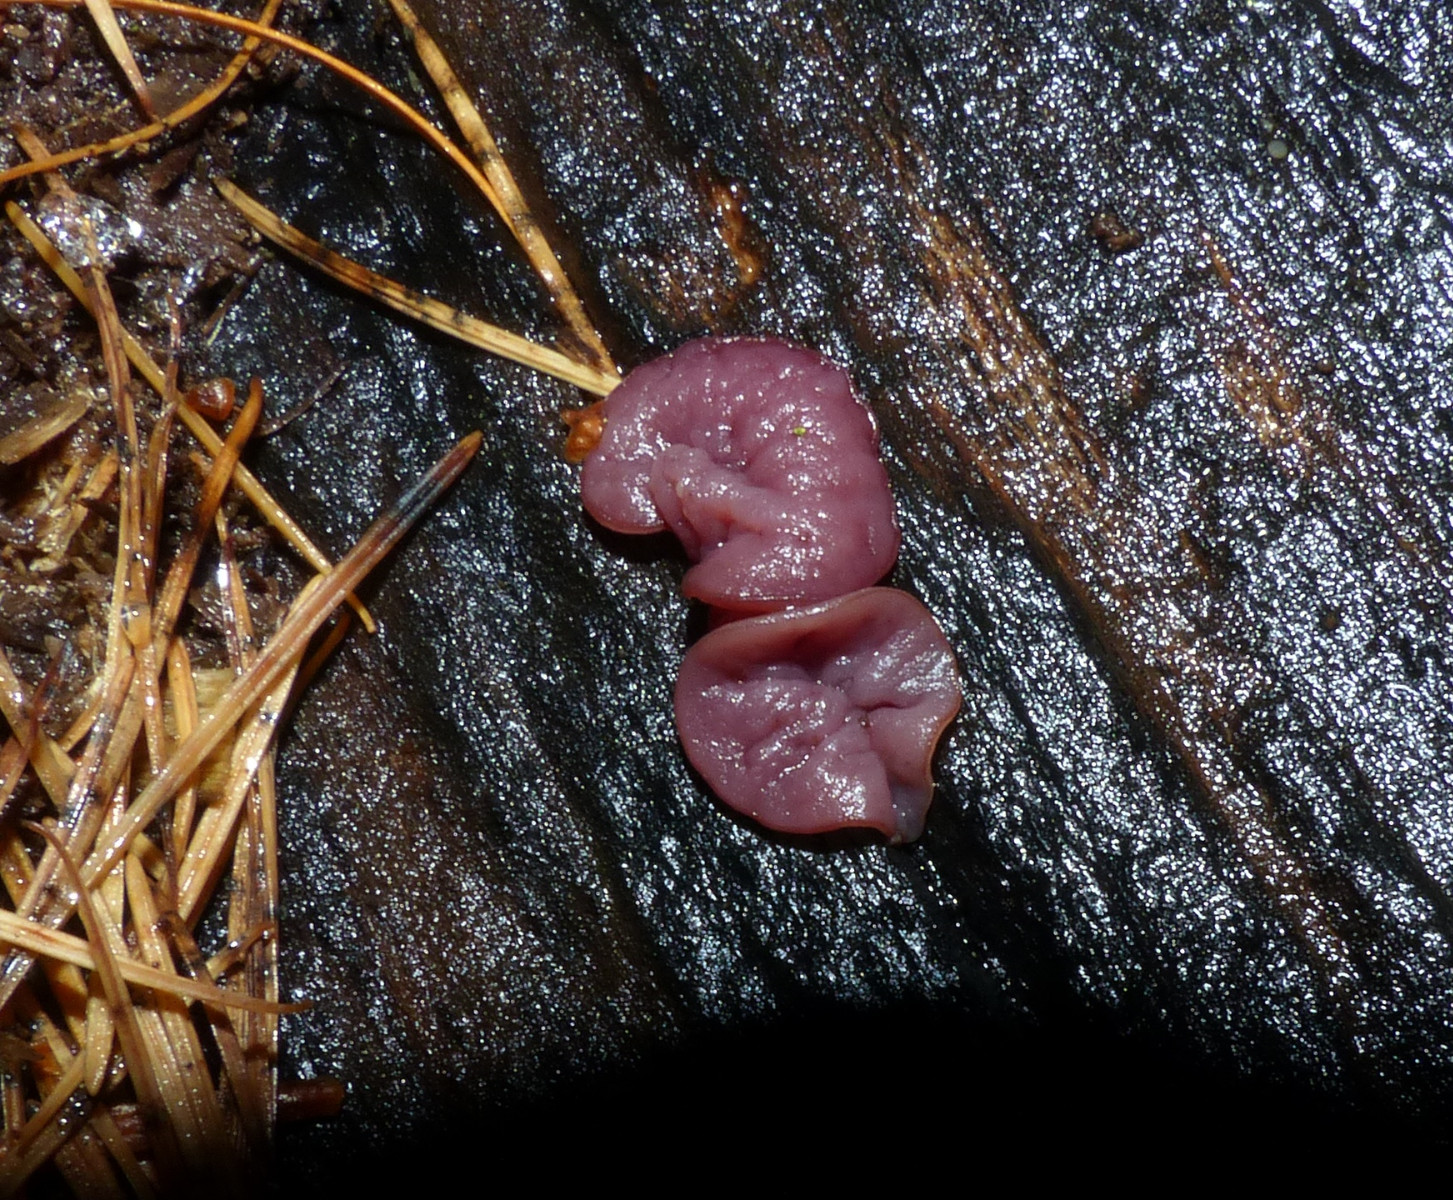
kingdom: Fungi
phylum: Ascomycota
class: Leotiomycetes
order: Helotiales
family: Gelatinodiscaceae
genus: Ascocoryne
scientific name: Ascocoryne cylichnium
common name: stor sejskive
